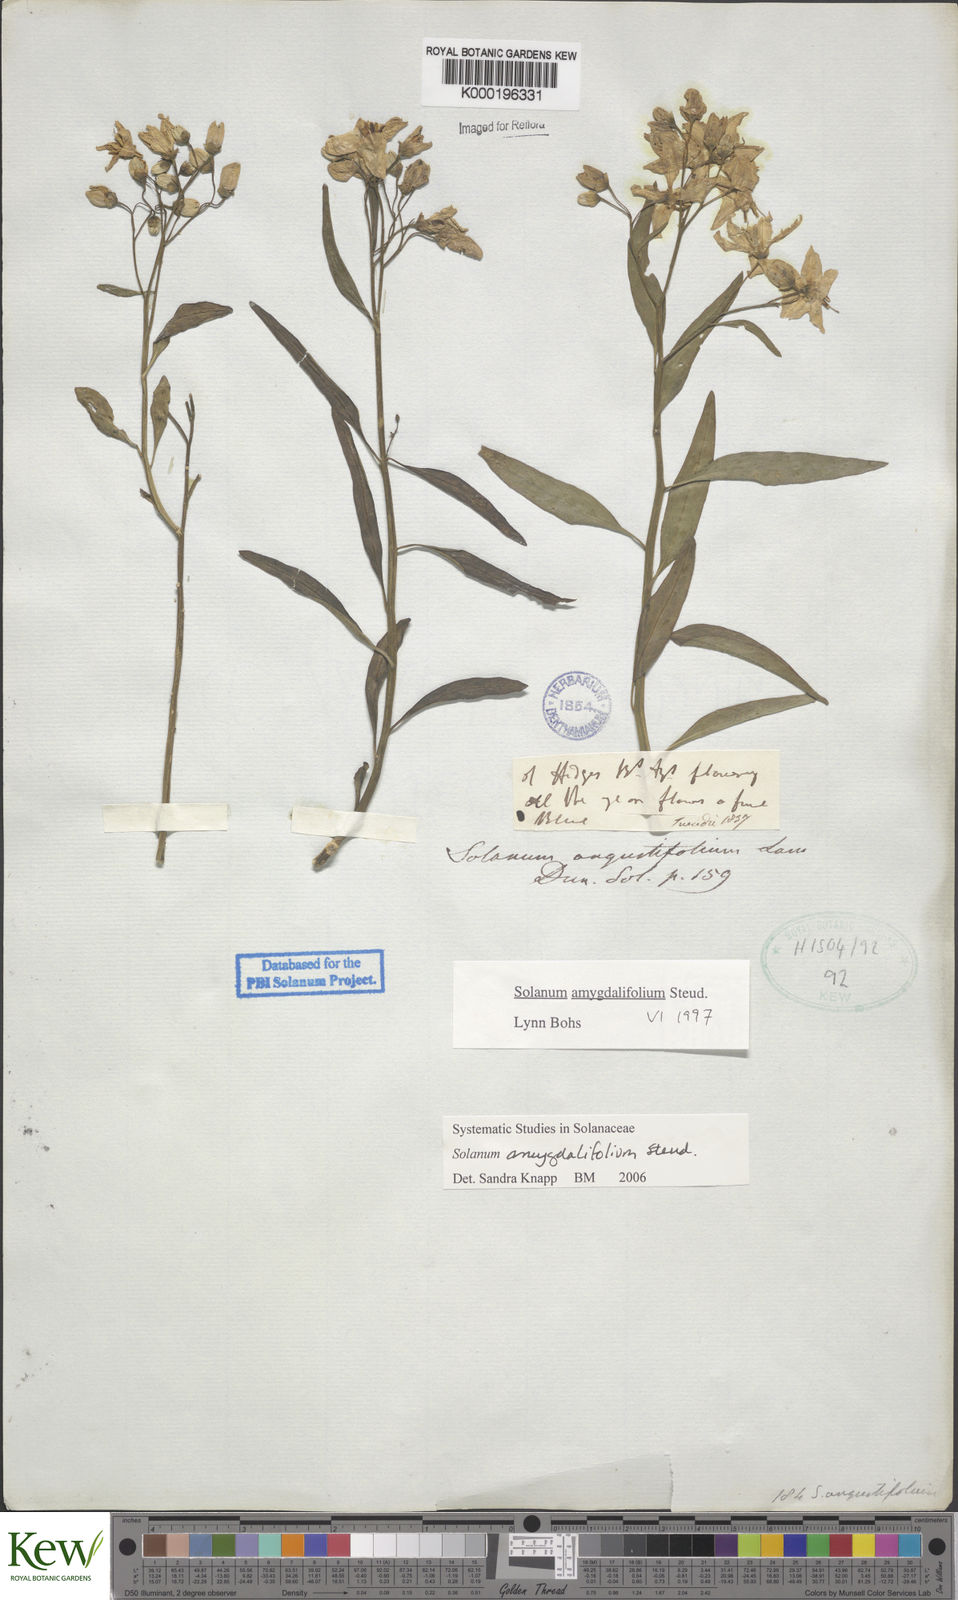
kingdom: Plantae
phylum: Tracheophyta
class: Magnoliopsida
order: Solanales
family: Solanaceae
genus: Solanum
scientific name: Solanum amygdalifolium
